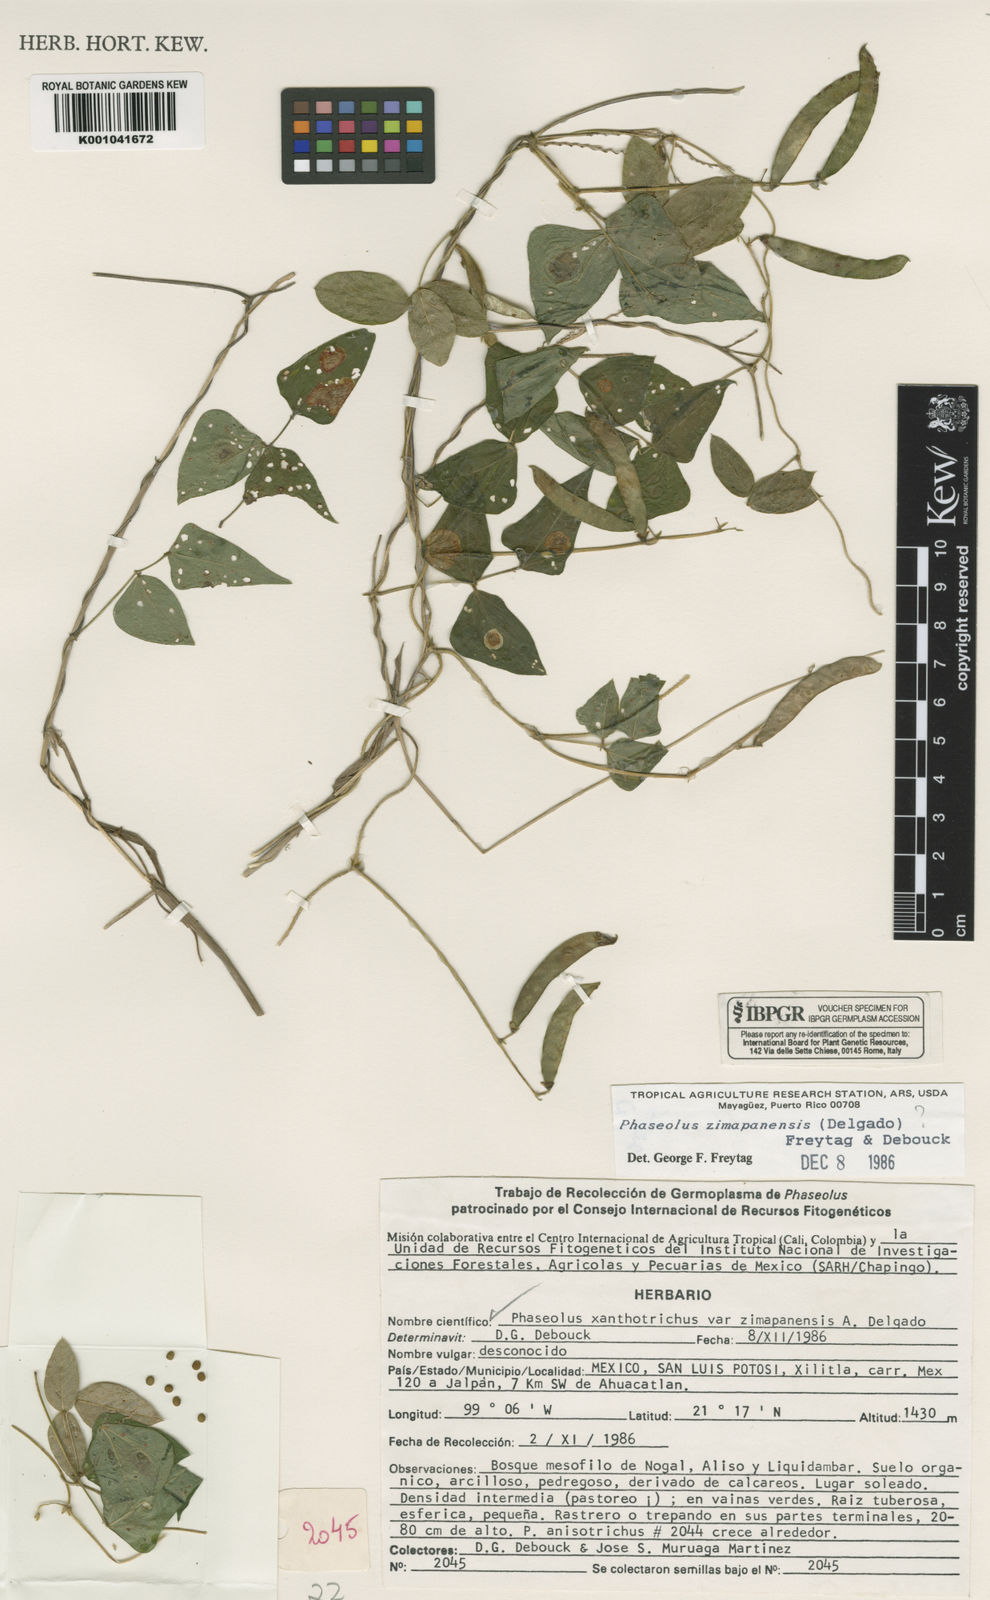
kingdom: Plantae
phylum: Tracheophyta
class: Magnoliopsida
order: Fabales
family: Fabaceae
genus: Phaseolus
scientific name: Phaseolus xanthotrichus
